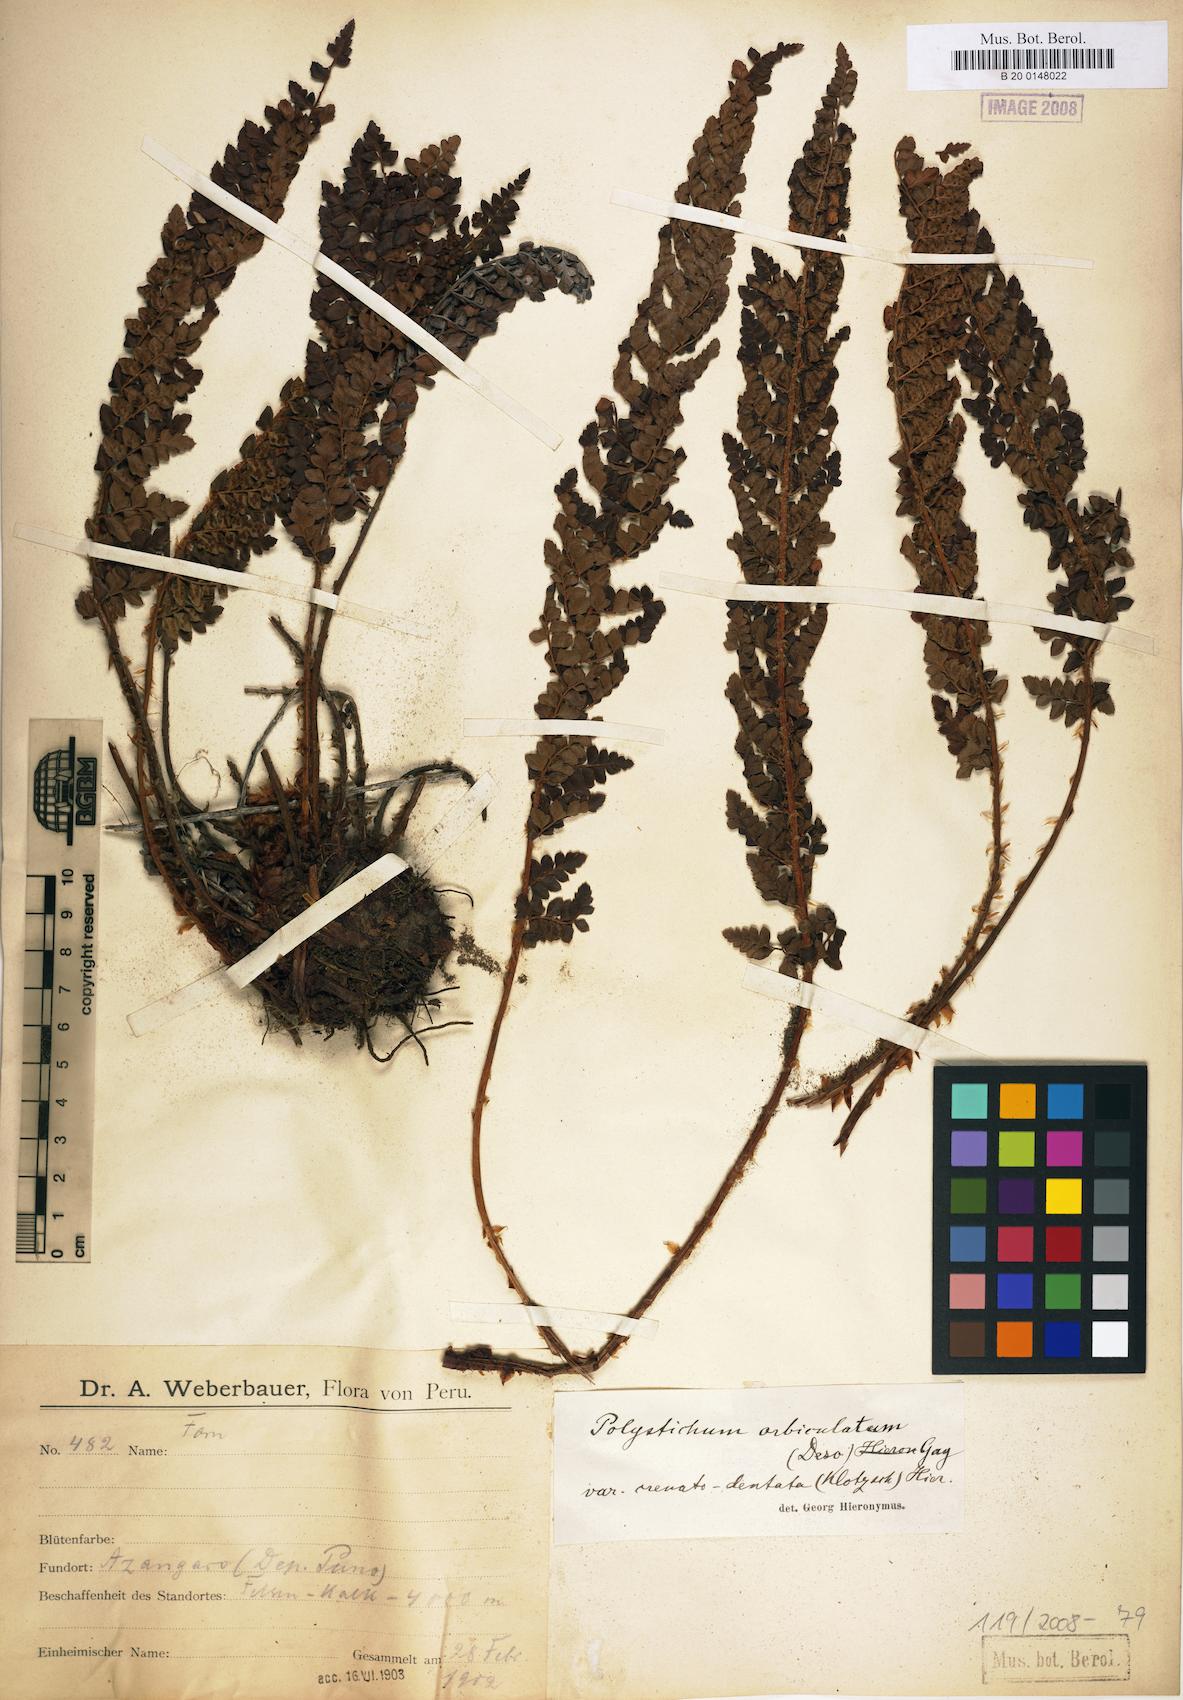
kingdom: Plantae
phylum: Tracheophyta
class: Polypodiopsida
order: Polypodiales
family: Dryopteridaceae
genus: Polystichum
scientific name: Polystichum orbiculatum
